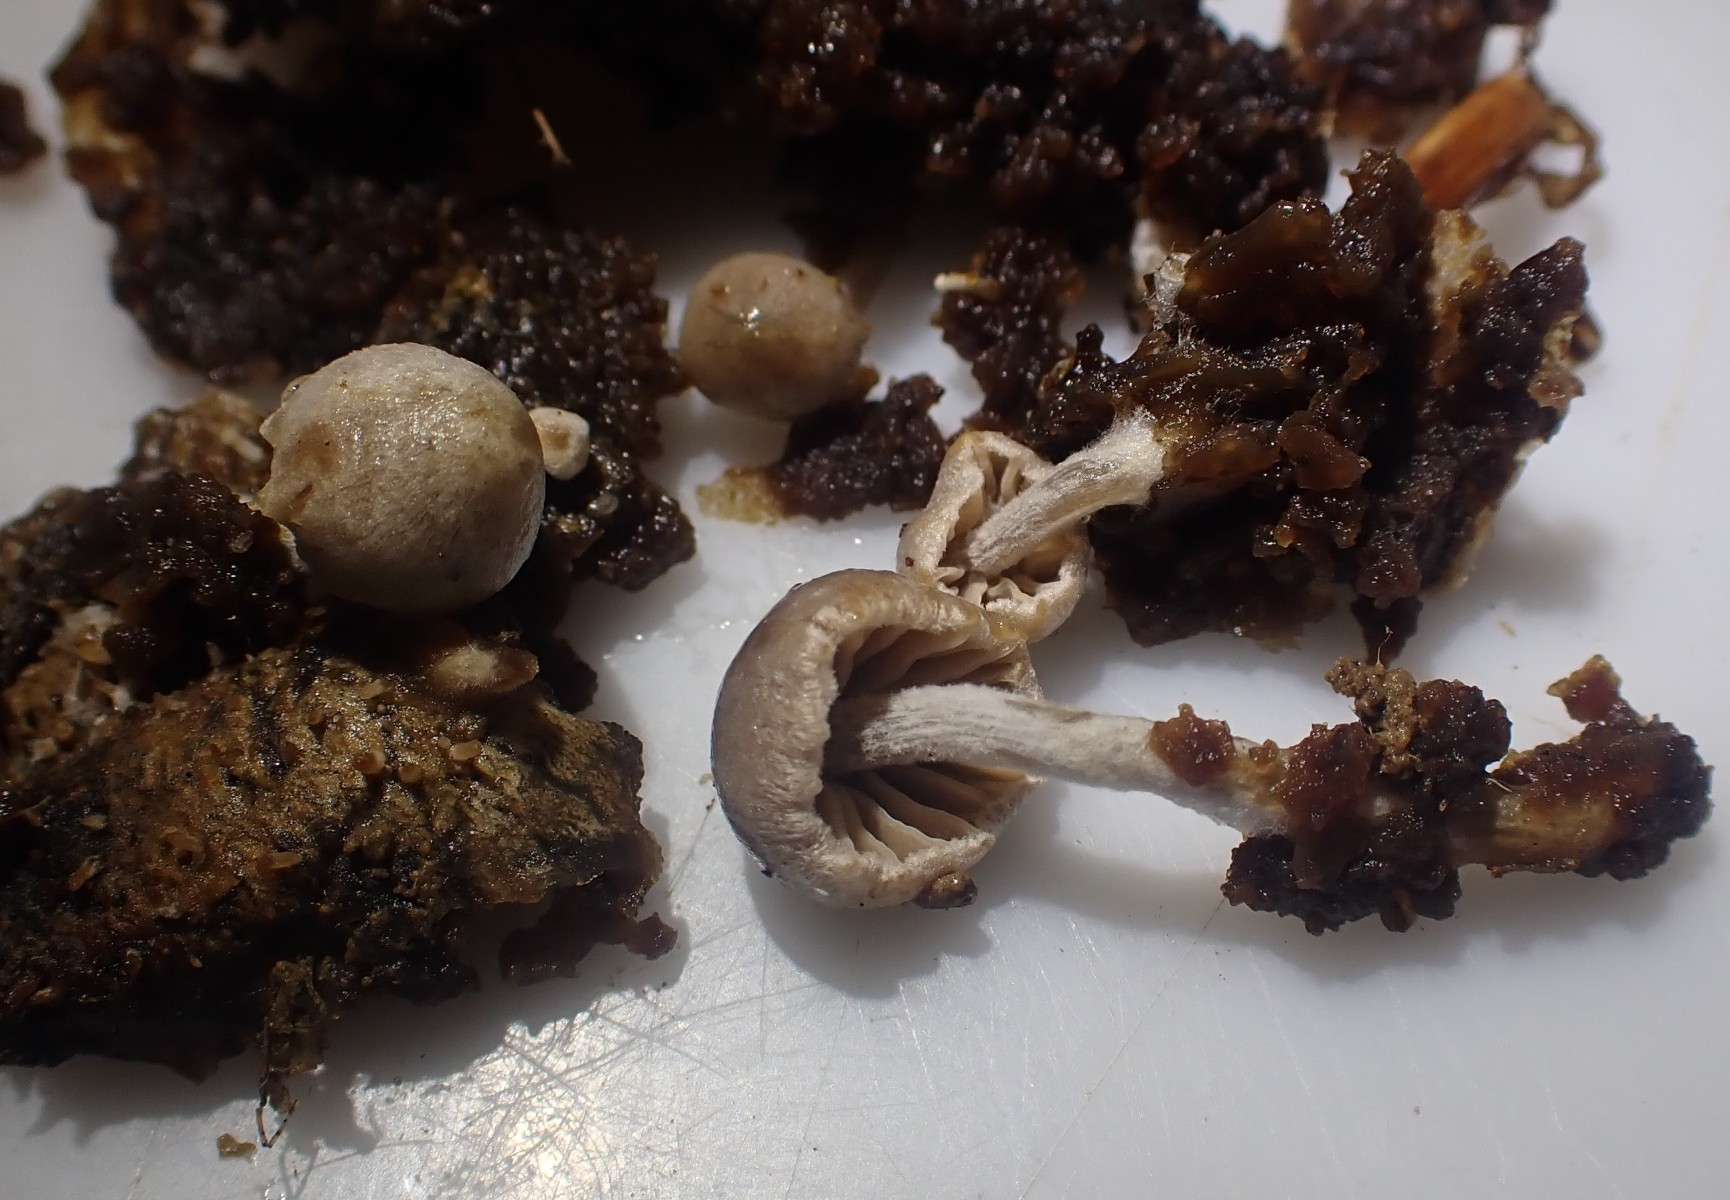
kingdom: Fungi
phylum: Basidiomycota
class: Agaricomycetes
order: Agaricales
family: Lyophyllaceae
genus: Asterophora
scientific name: Asterophora parasitica
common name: grå snyltehat
